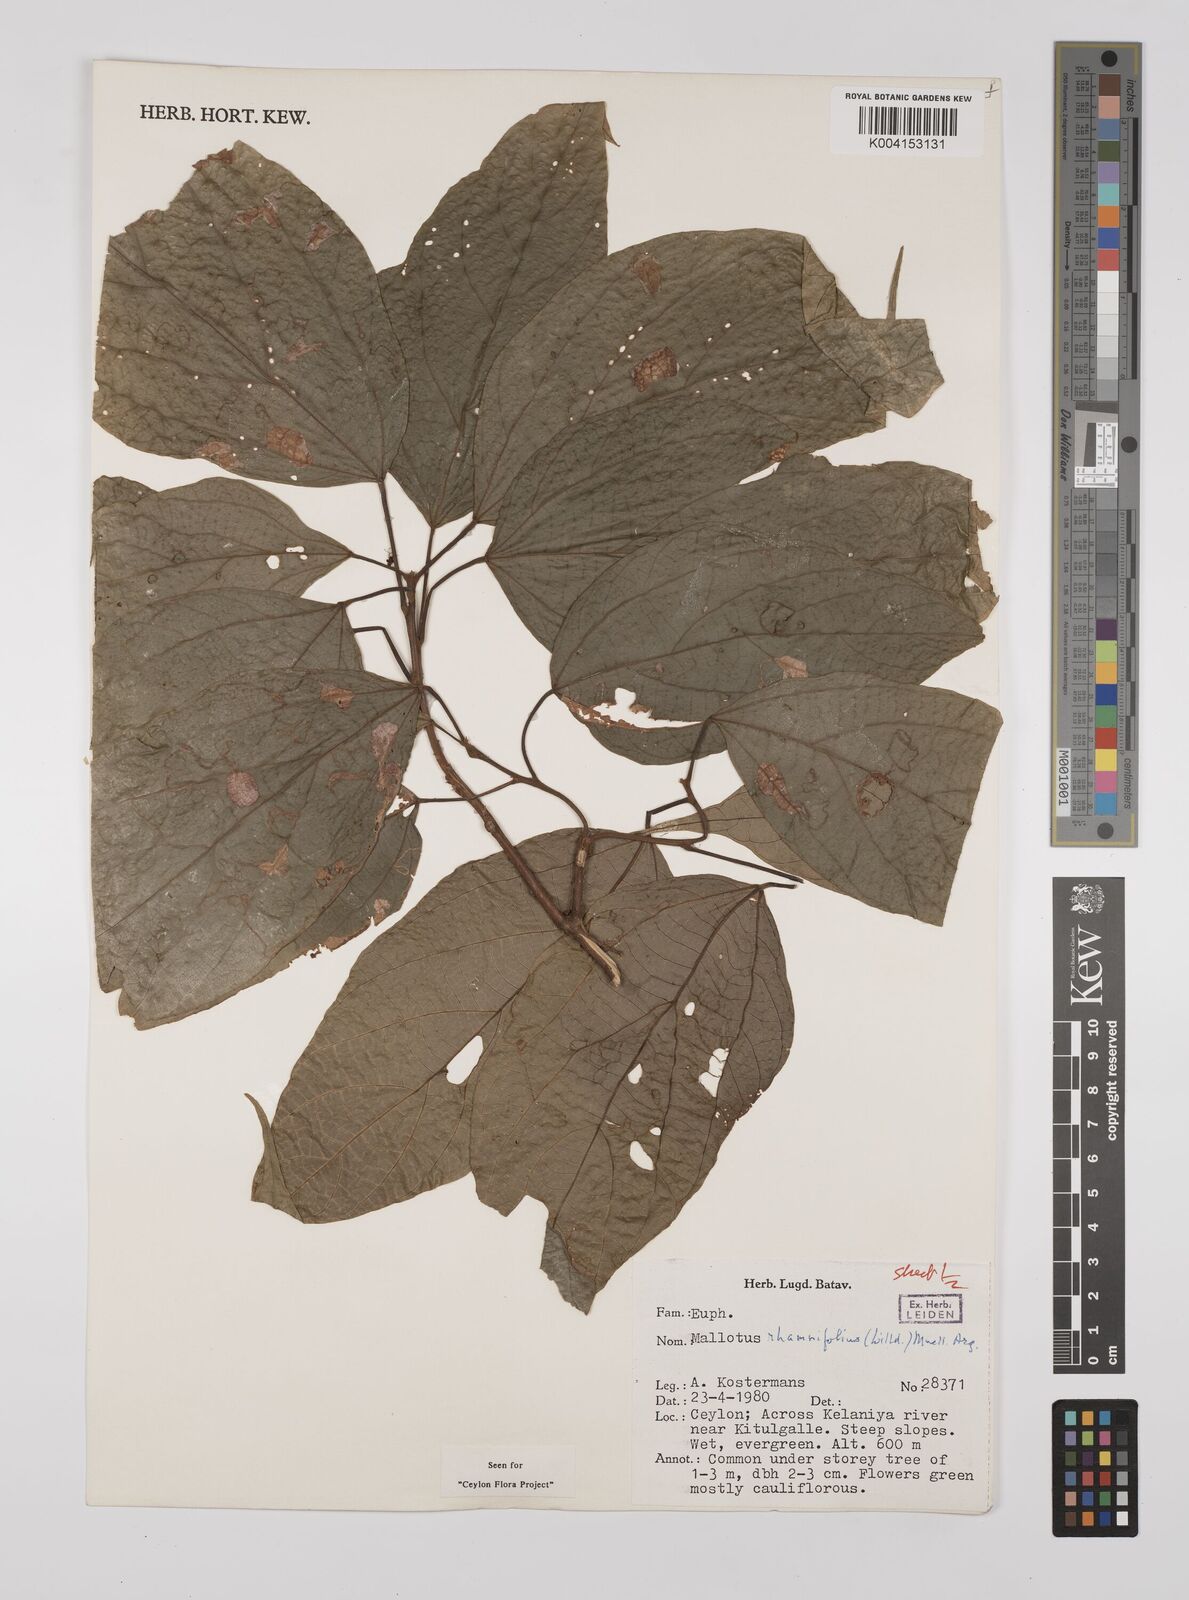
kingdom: Plantae
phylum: Tracheophyta
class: Magnoliopsida
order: Malpighiales
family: Euphorbiaceae
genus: Mallotus
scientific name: Mallotus rhamnifolius
